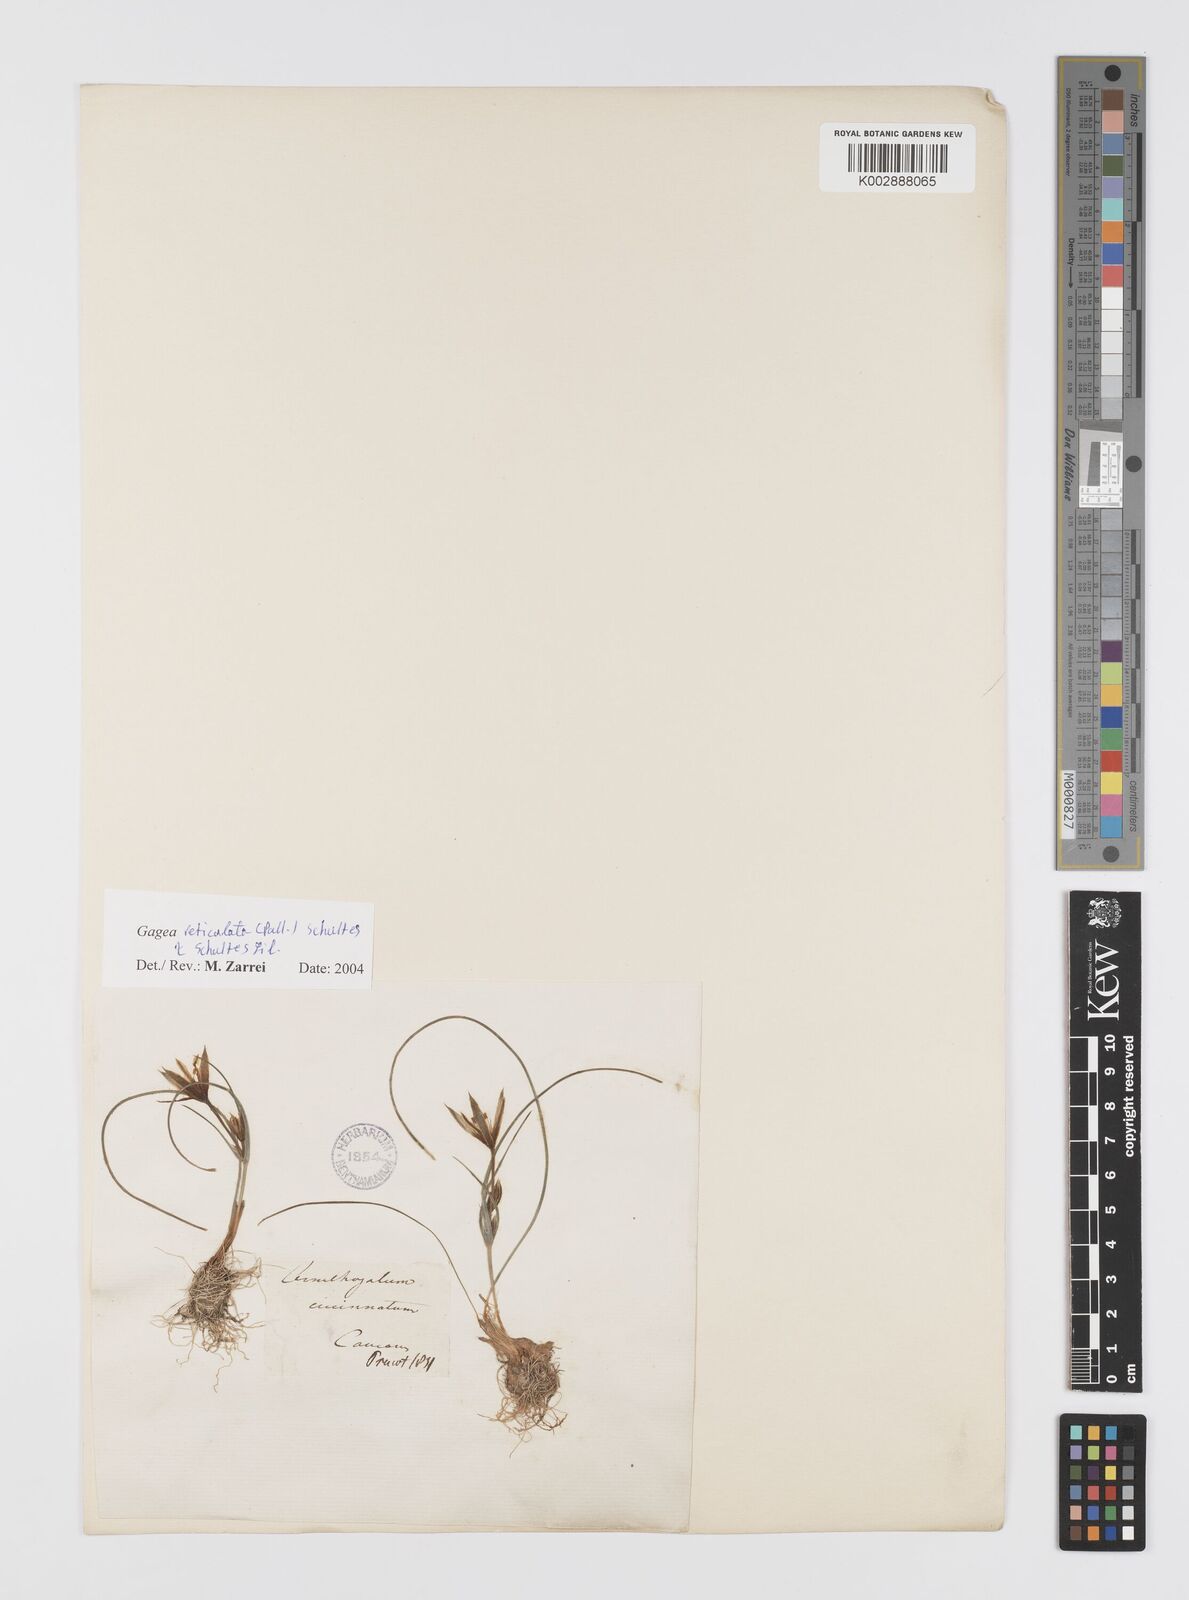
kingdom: Plantae
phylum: Tracheophyta
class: Liliopsida
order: Liliales
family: Liliaceae
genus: Gagea
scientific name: Gagea reticulata
